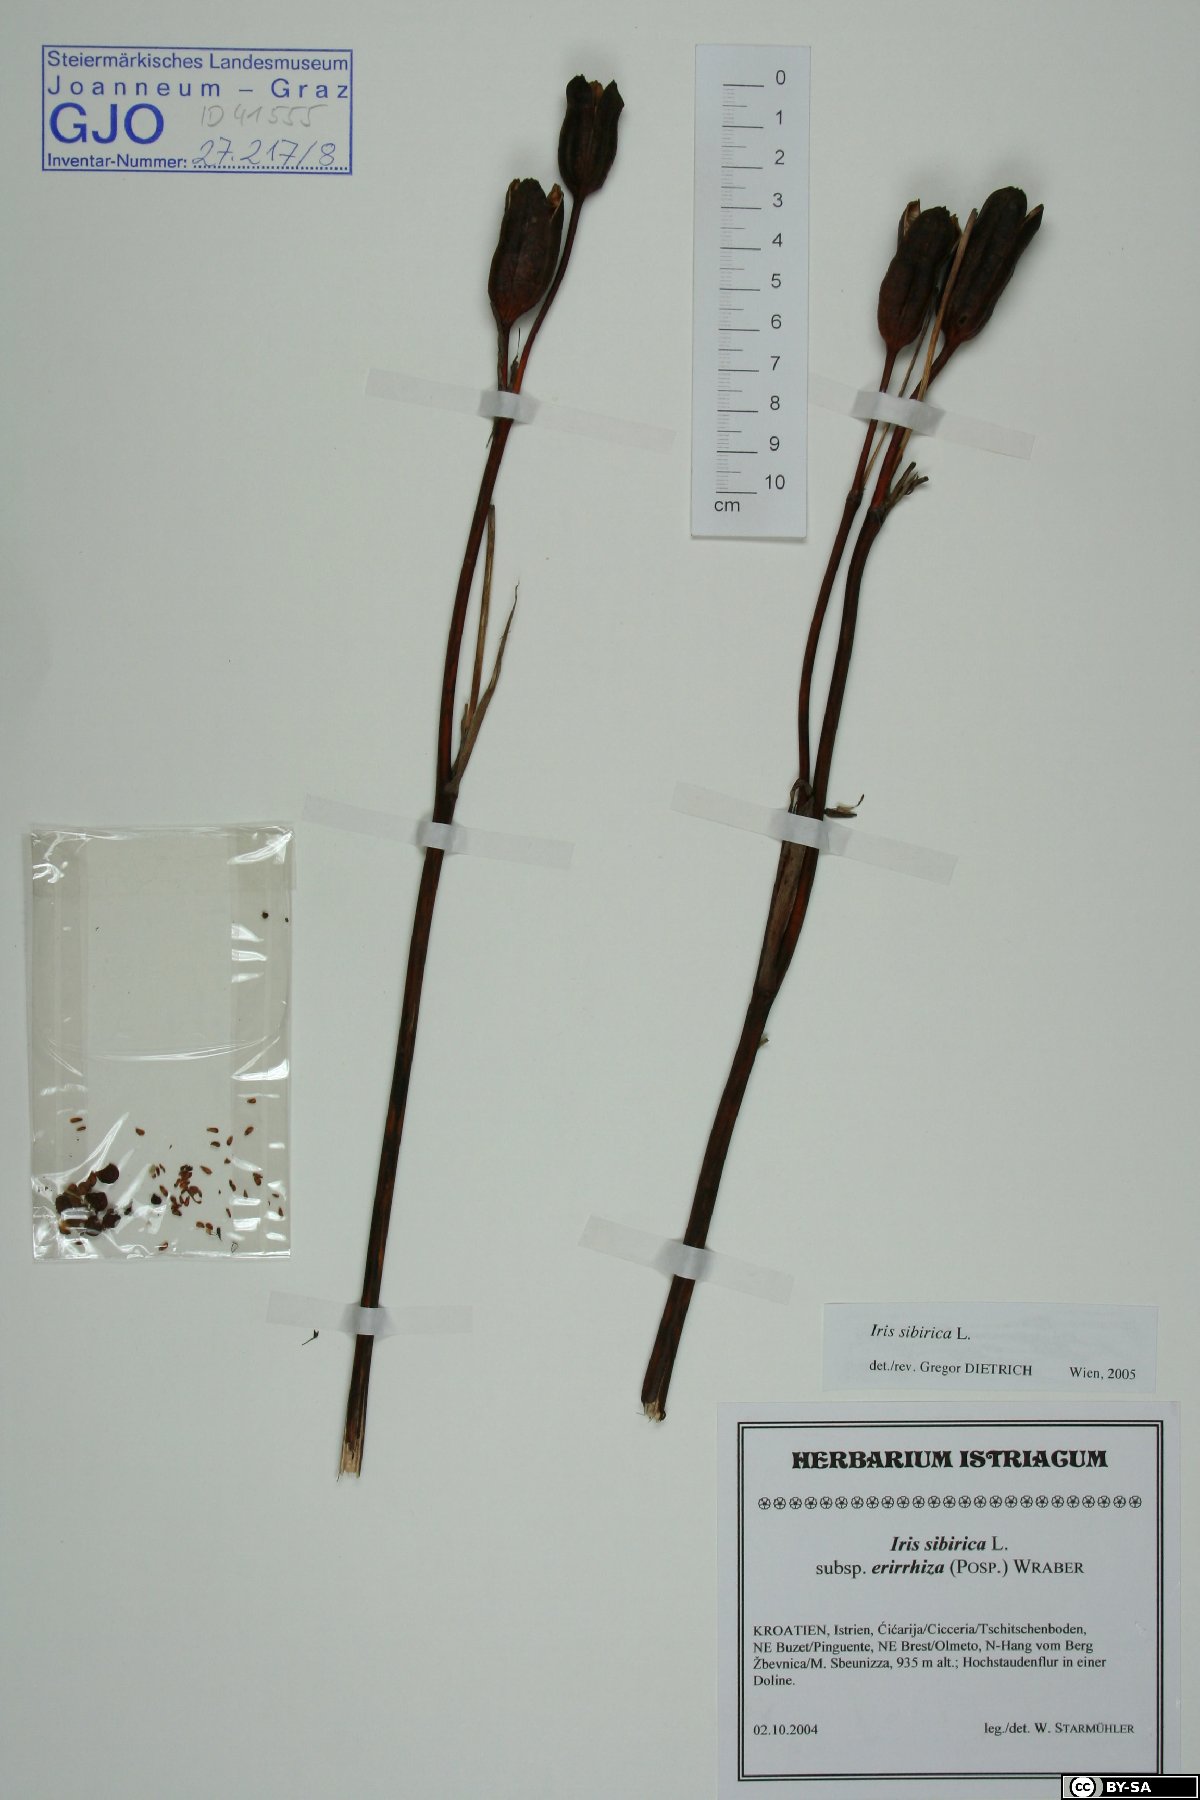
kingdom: Plantae
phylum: Tracheophyta
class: Liliopsida
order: Asparagales
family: Iridaceae
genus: Iris
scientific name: Iris sibirica
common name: Siberian iris
